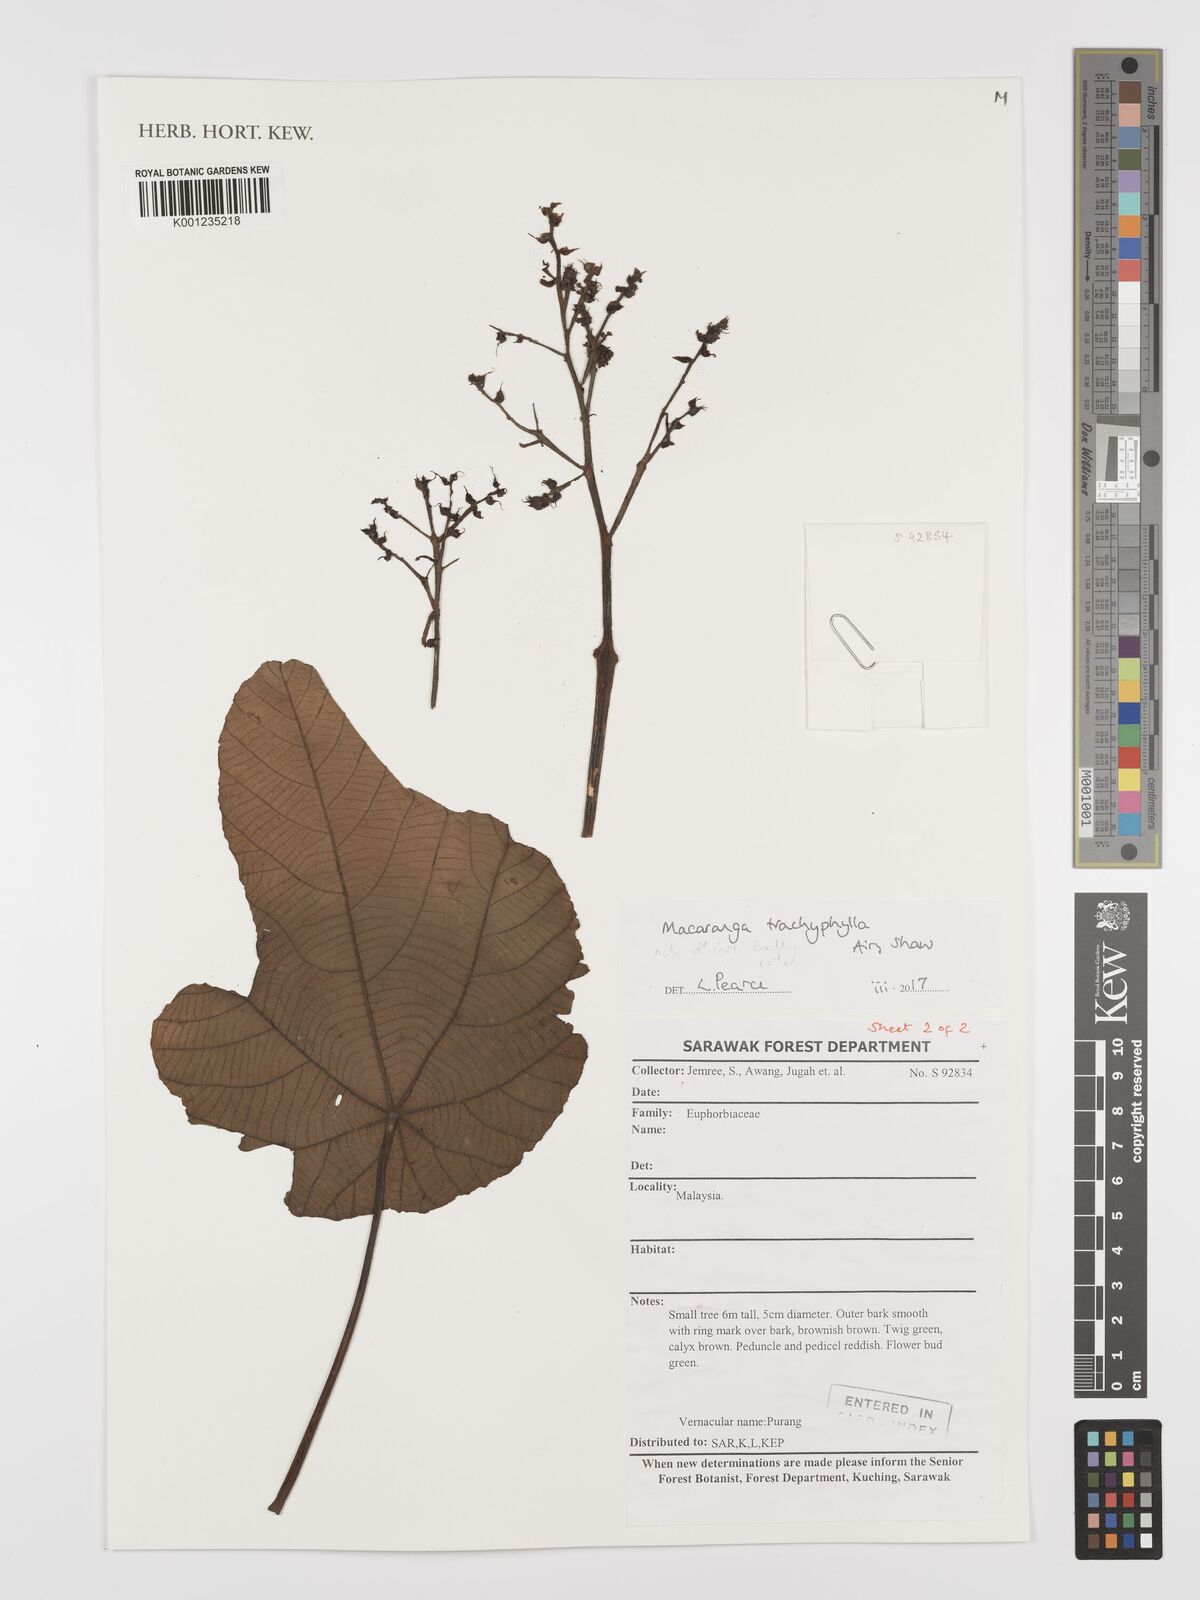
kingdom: Plantae
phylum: Tracheophyta
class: Magnoliopsida
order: Malpighiales
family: Euphorbiaceae
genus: Macaranga
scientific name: Macaranga trachyphylla
